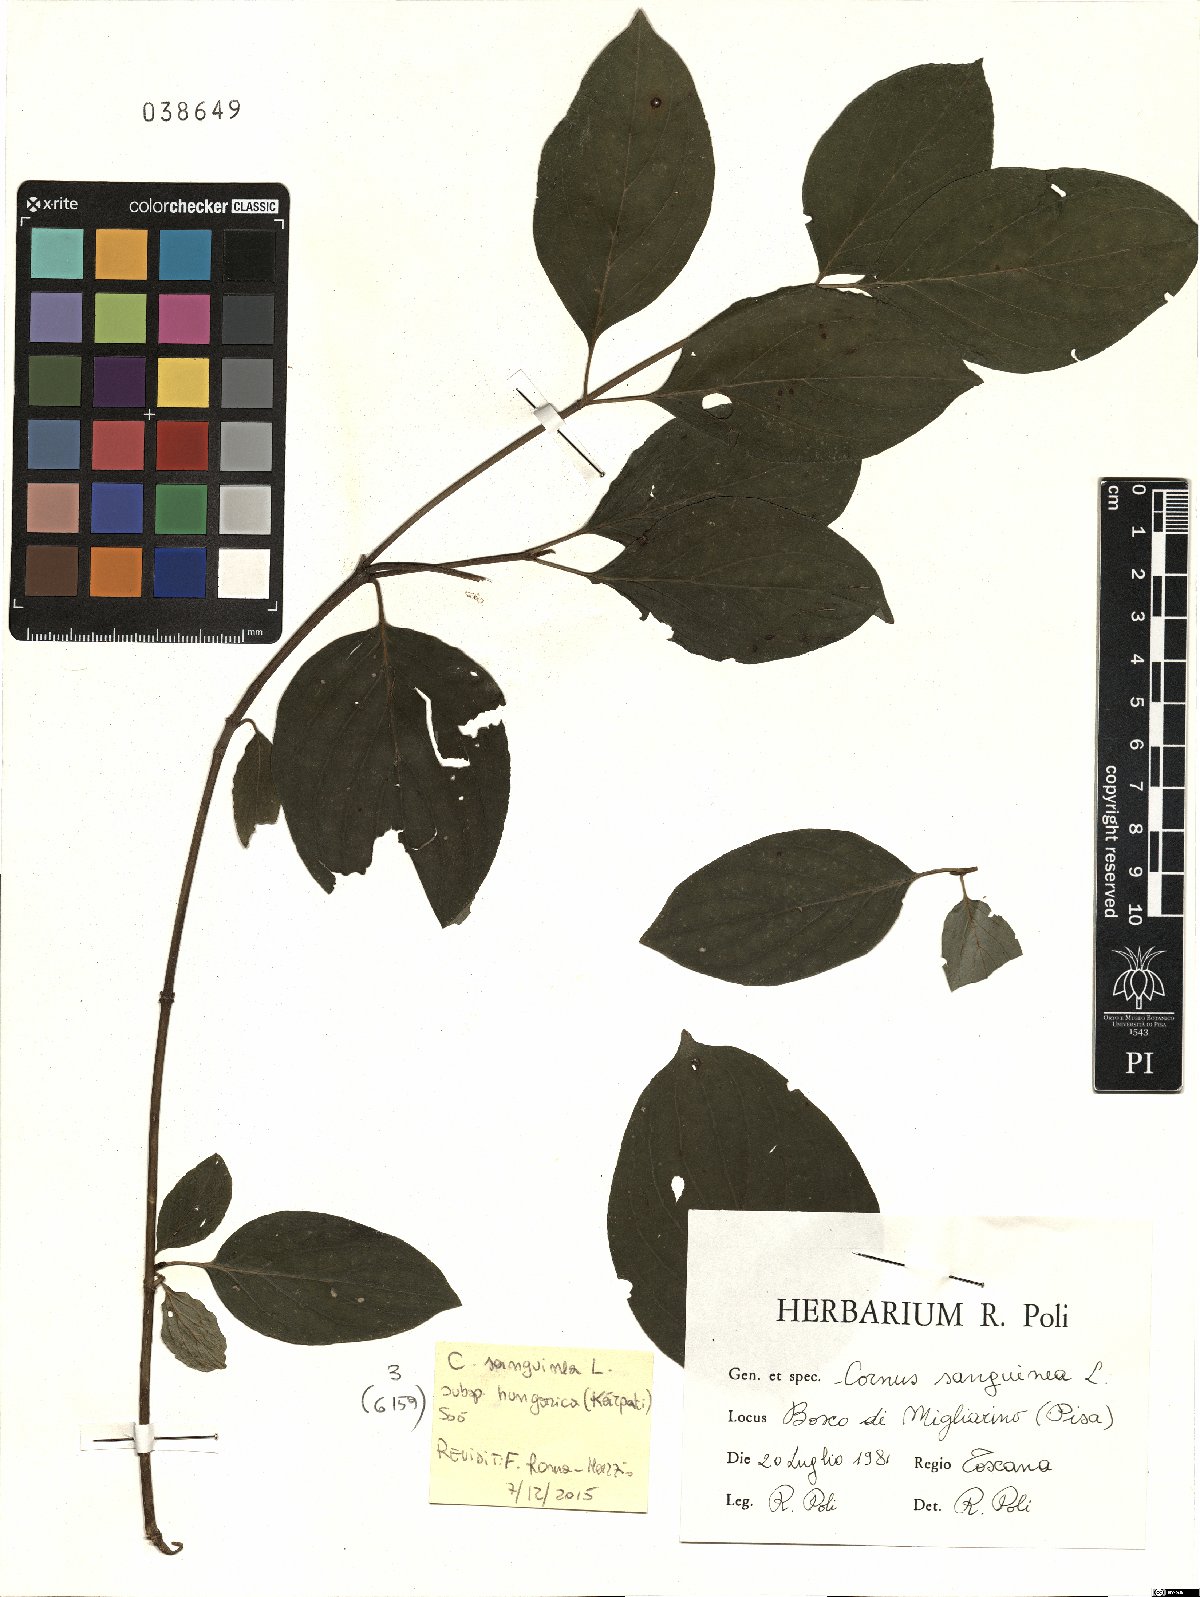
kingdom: Plantae
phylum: Tracheophyta
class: Magnoliopsida
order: Cornales
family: Cornaceae
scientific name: Cornaceae
